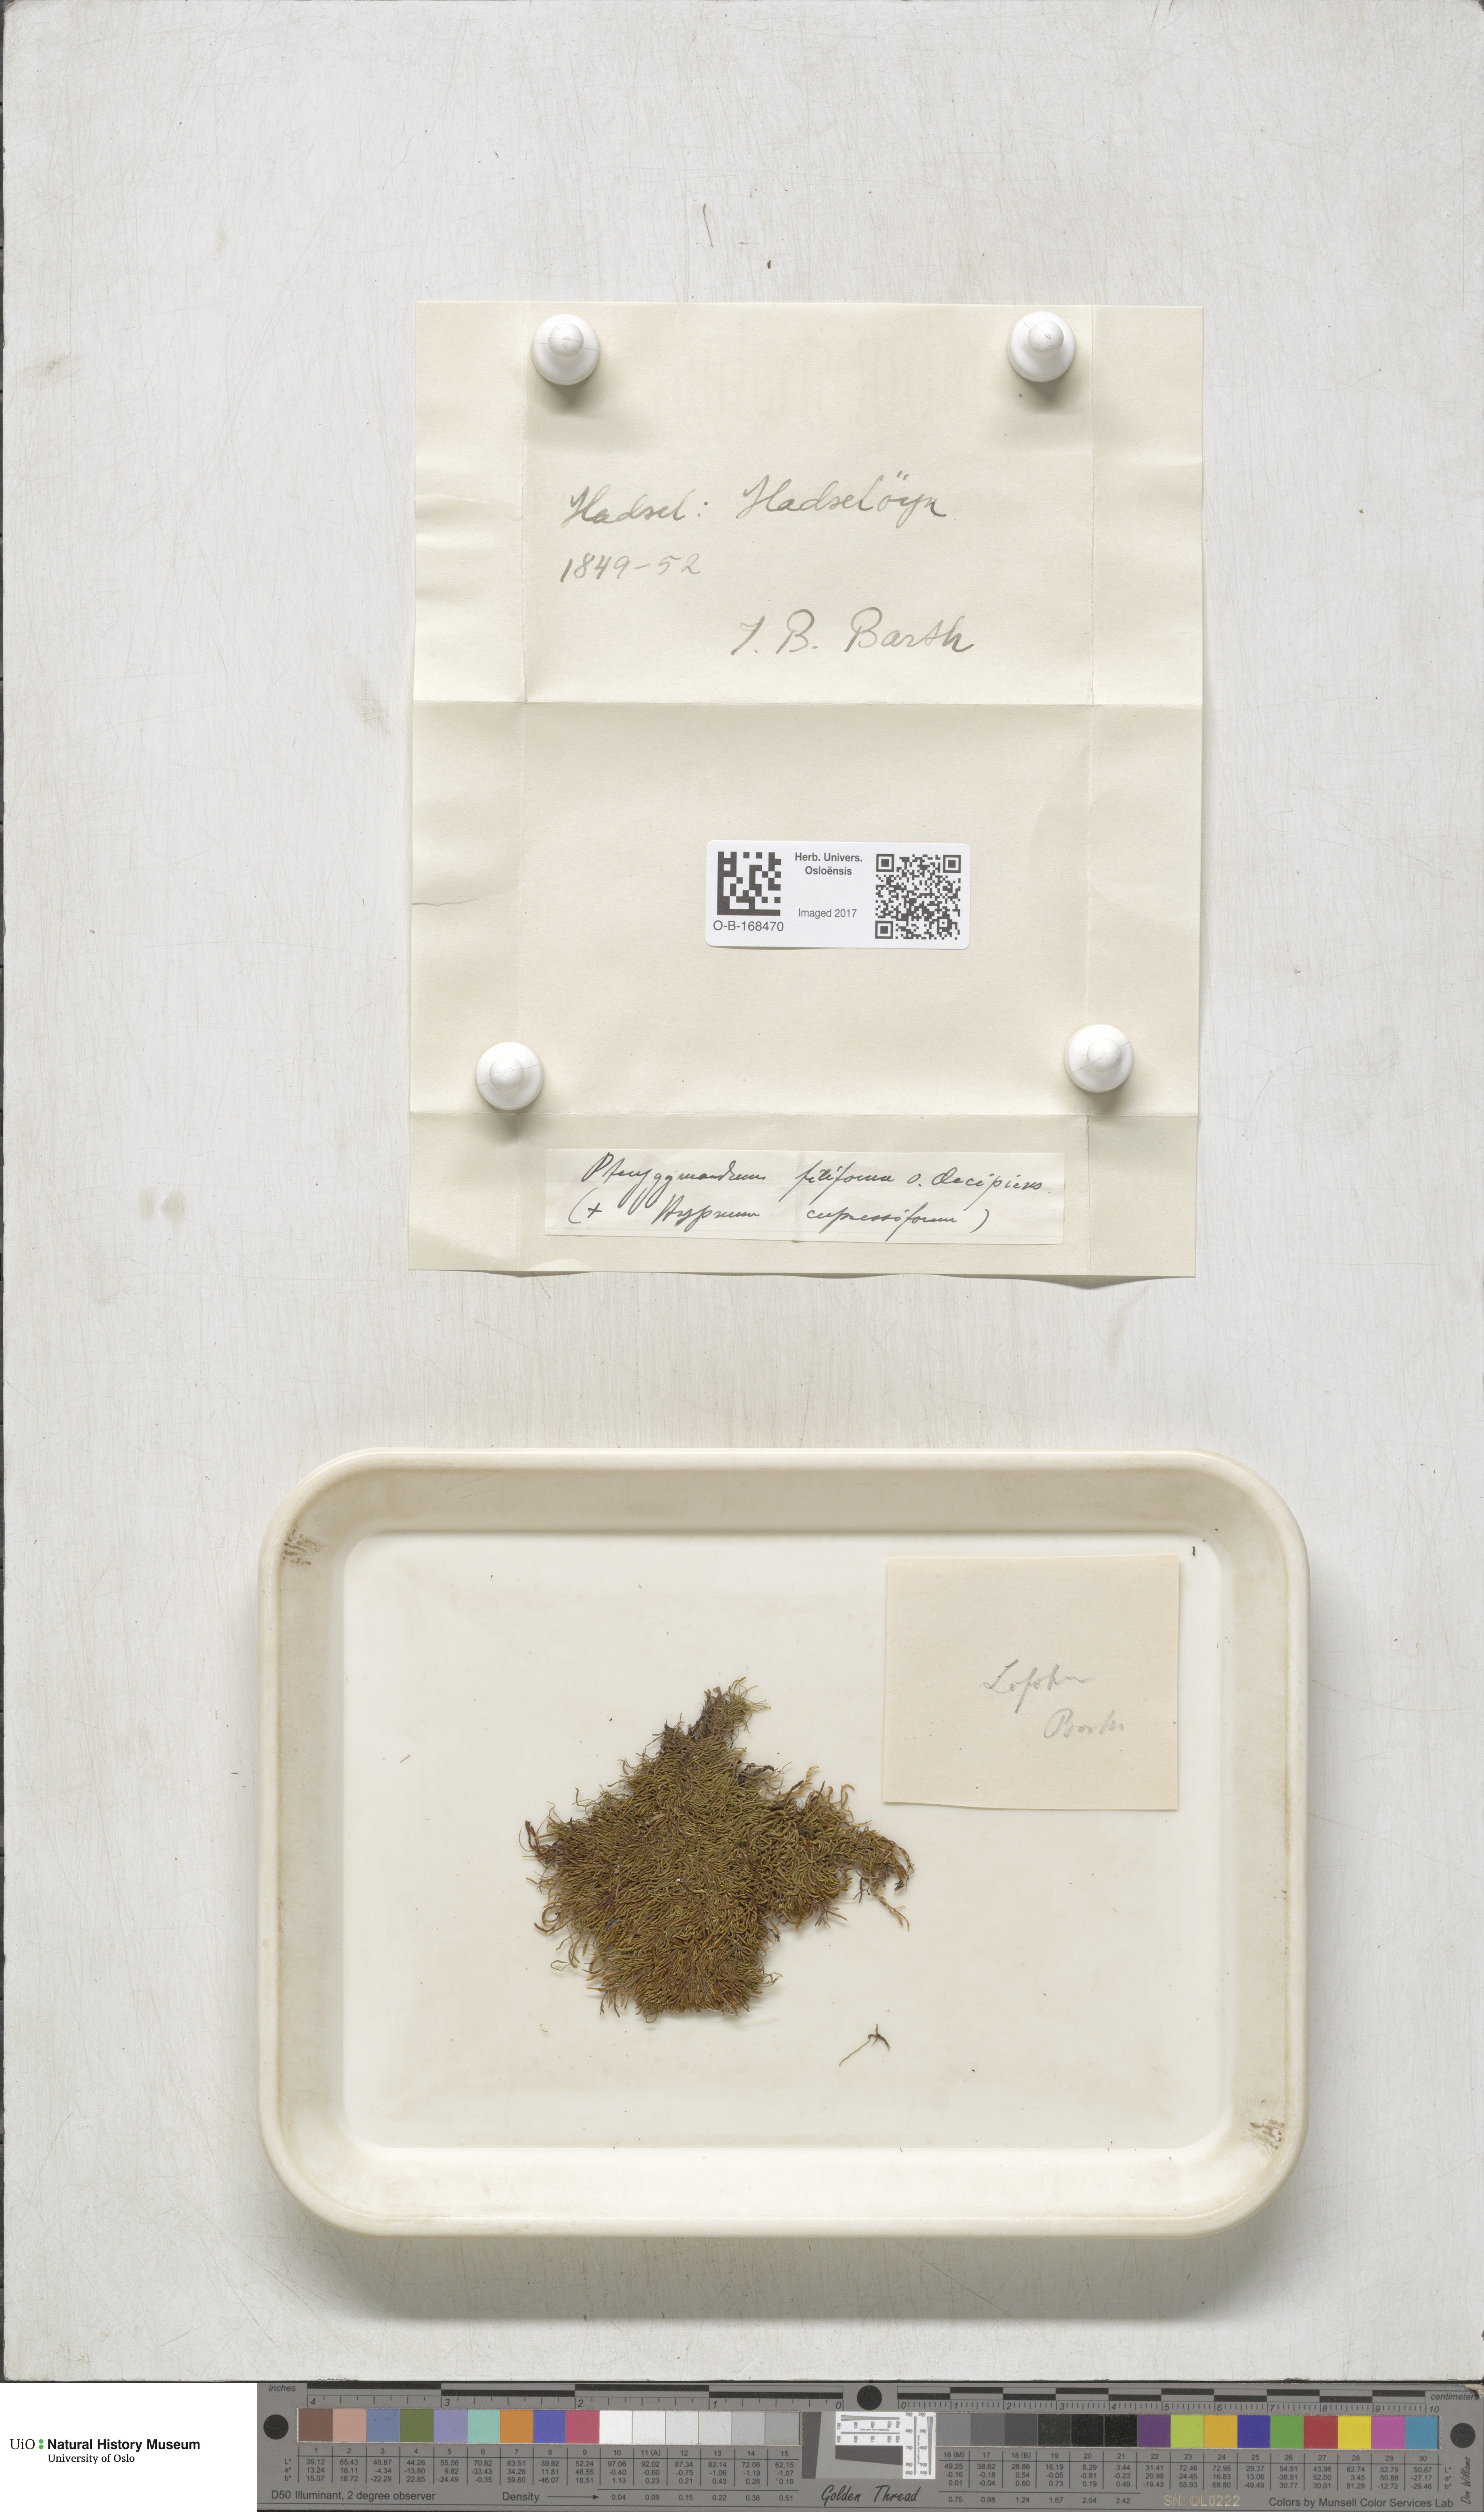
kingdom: Plantae
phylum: Bryophyta
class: Bryopsida
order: Hypnales
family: Pterigynandraceae
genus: Pterigynandrum
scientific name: Pterigynandrum filiforme
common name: Capillary wing moss
